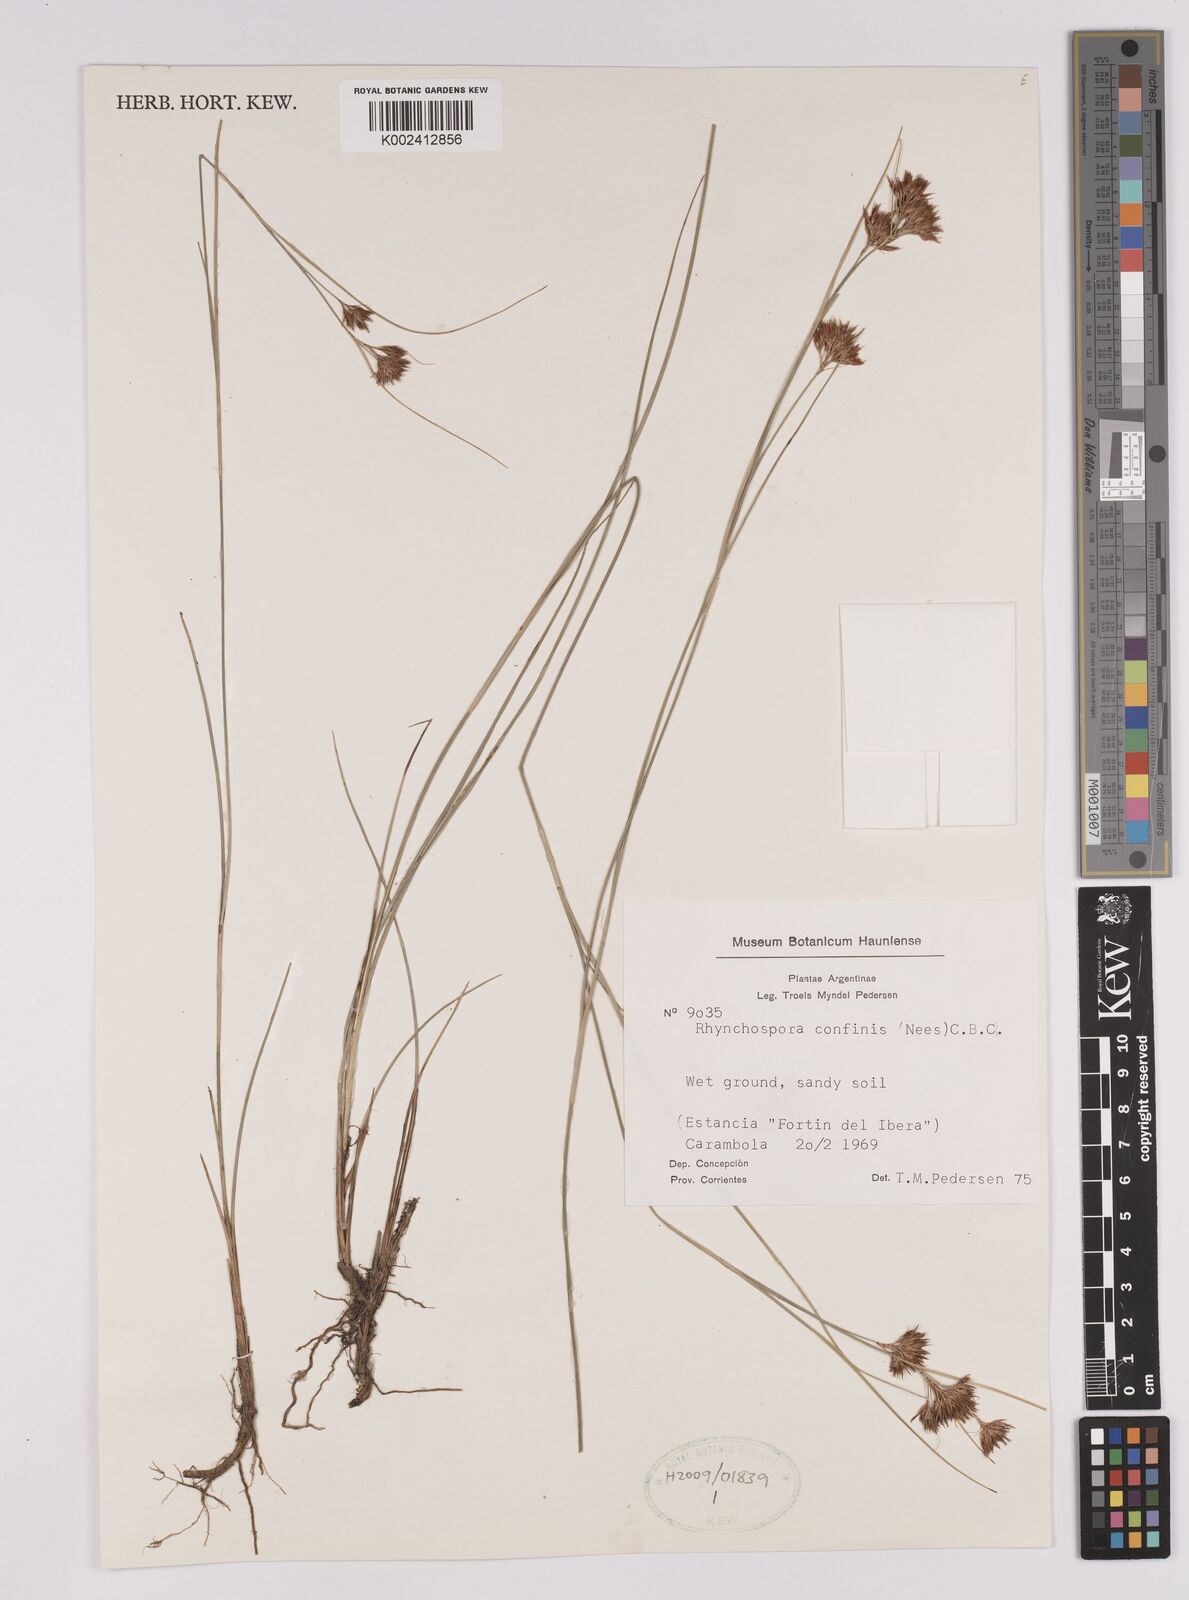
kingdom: Plantae
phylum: Tracheophyta
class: Liliopsida
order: Poales
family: Cyperaceae
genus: Rhynchospora
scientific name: Rhynchospora confinis
